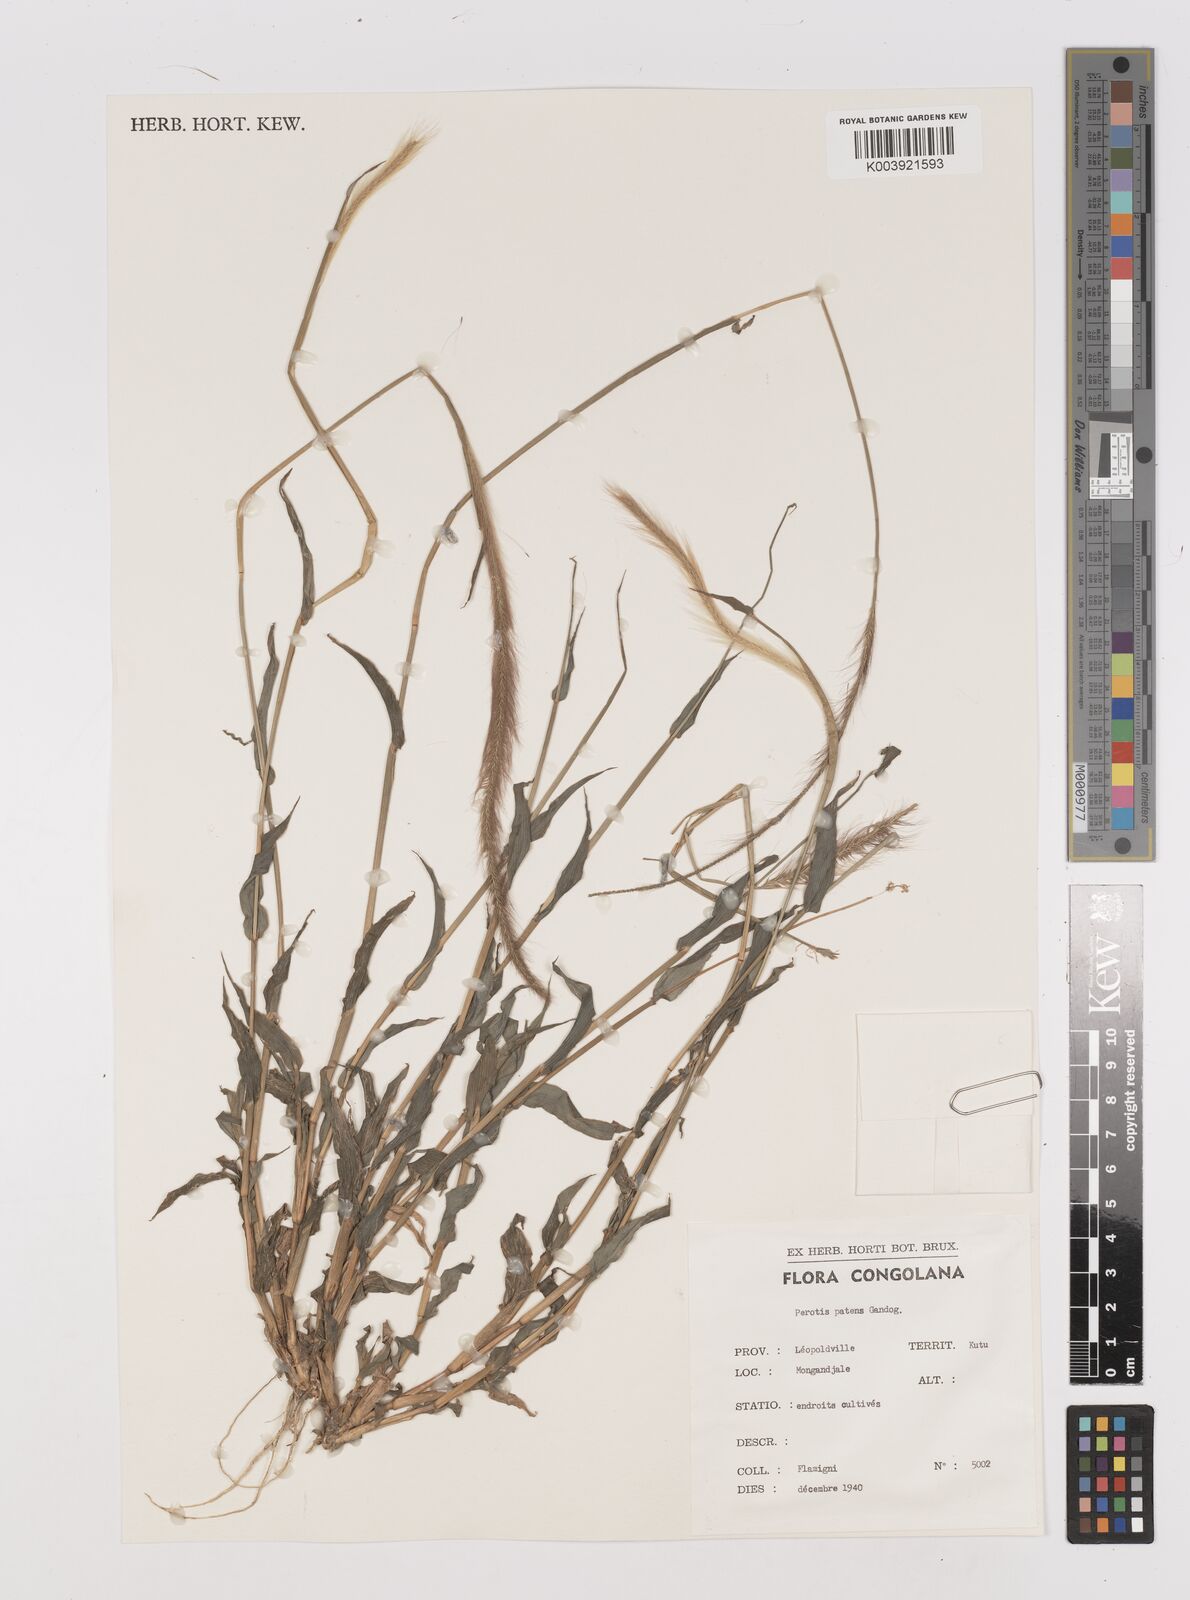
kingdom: Plantae
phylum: Tracheophyta
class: Liliopsida
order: Poales
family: Poaceae
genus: Perotis
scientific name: Perotis patens
